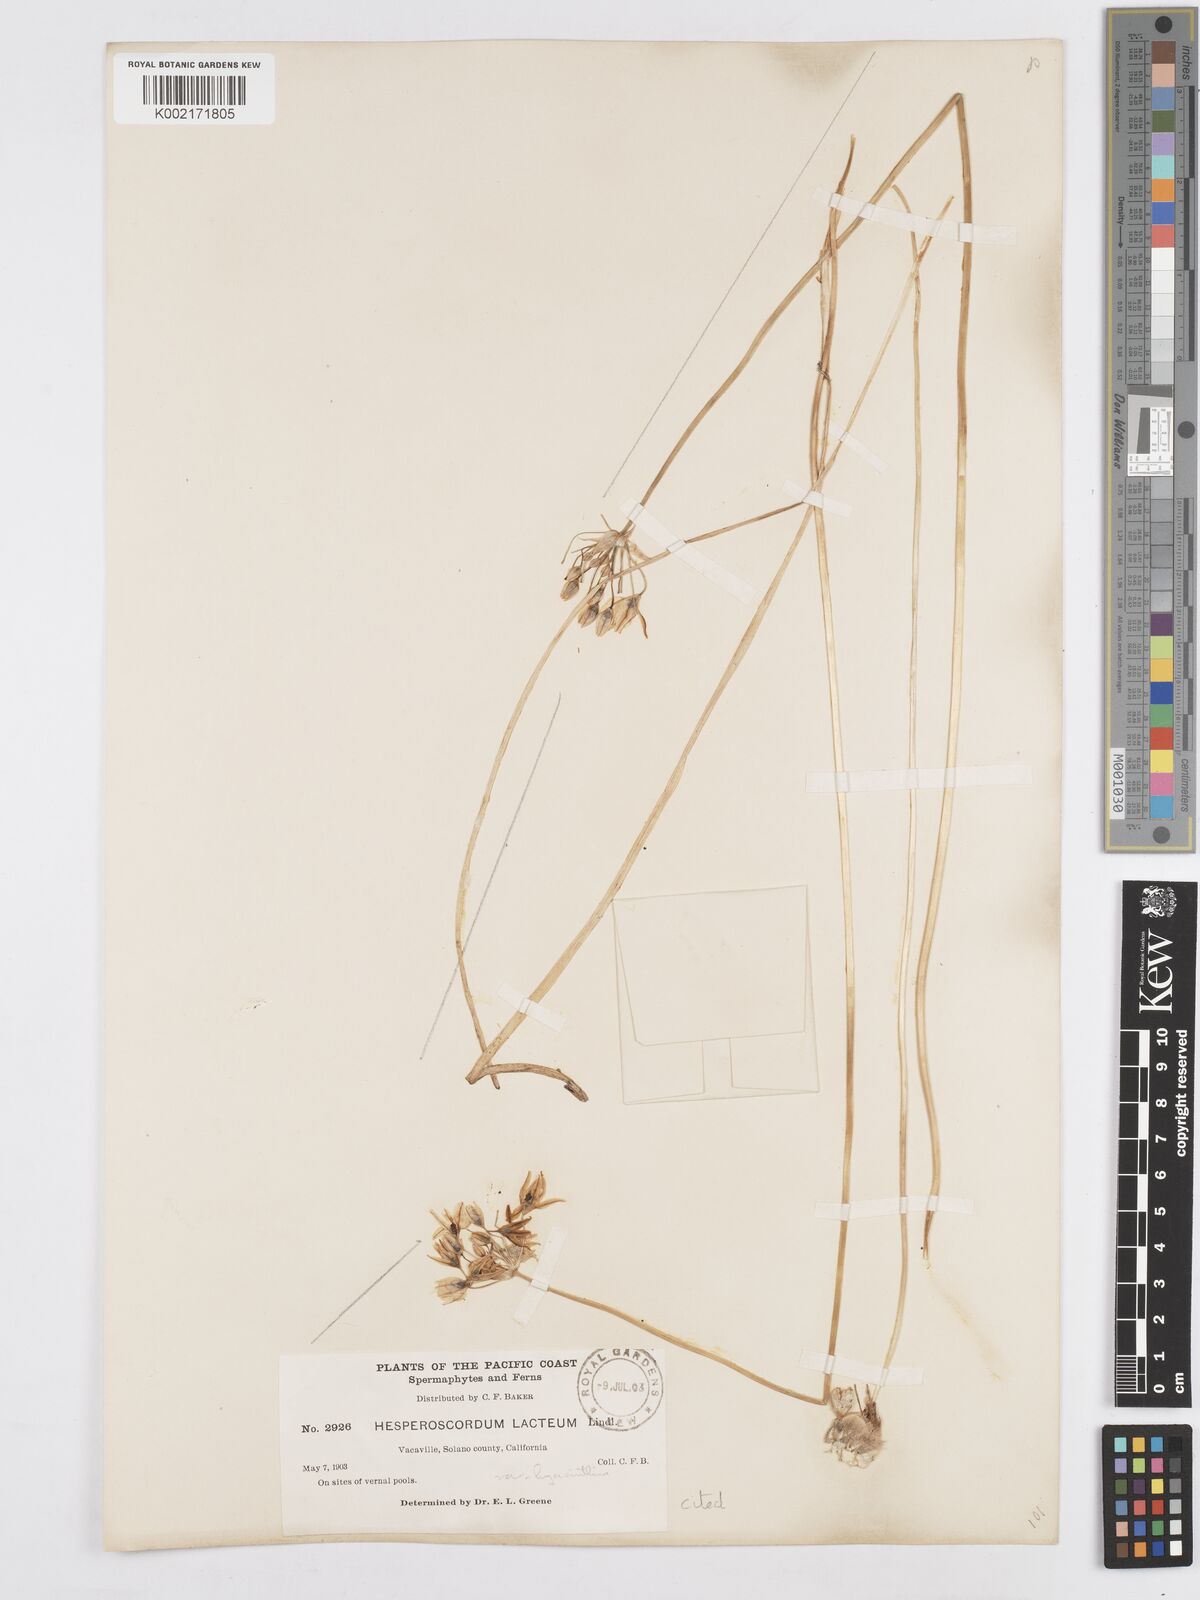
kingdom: Plantae
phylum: Tracheophyta
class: Liliopsida
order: Asparagales
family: Asparagaceae
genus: Triteleia
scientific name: Triteleia hyacinthina
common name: White brodiaea
